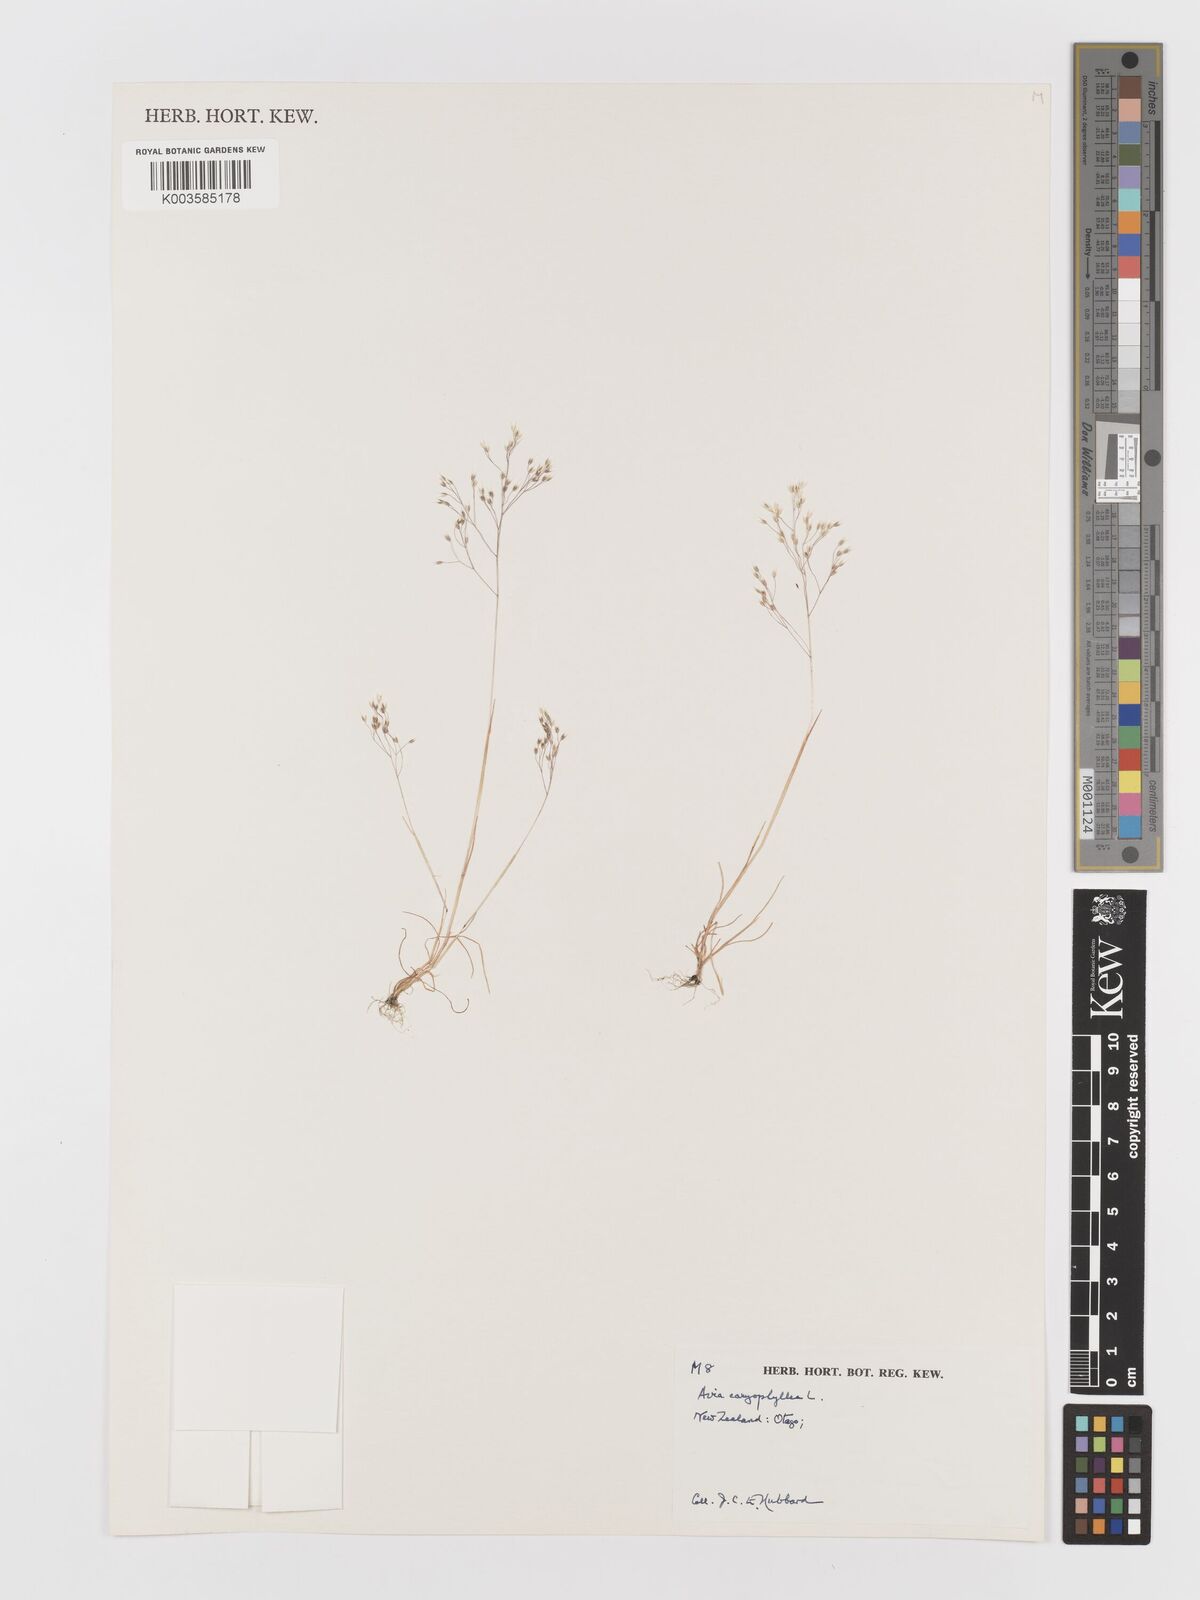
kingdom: Plantae
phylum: Tracheophyta
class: Liliopsida
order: Poales
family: Poaceae
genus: Aira
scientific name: Aira caryophyllea
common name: Silver hairgrass
